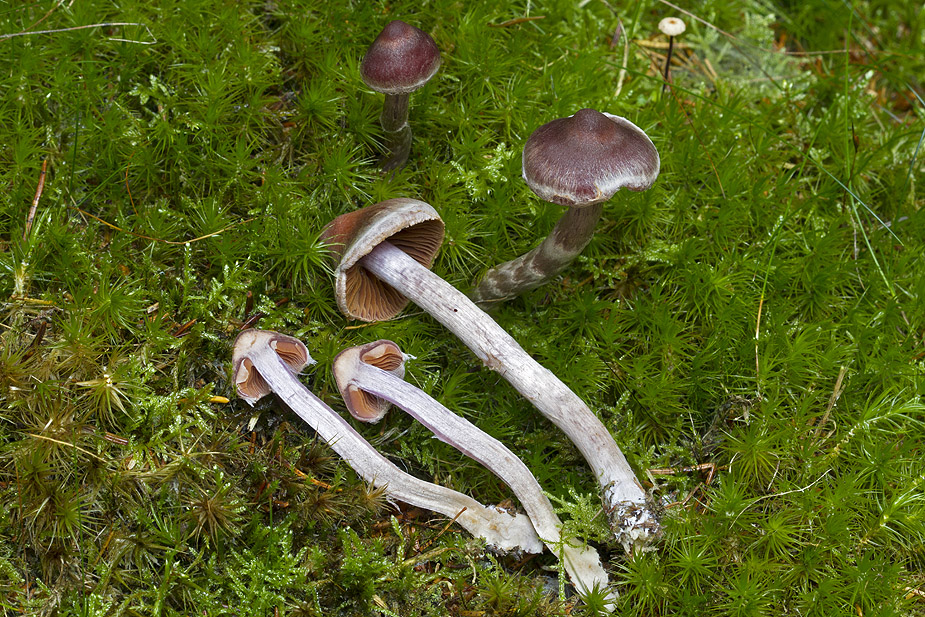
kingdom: Fungi
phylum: Basidiomycota
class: Agaricomycetes
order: Agaricales
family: Cortinariaceae
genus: Cortinarius
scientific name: Cortinarius kauffmanianus
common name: plantage-slørhat
